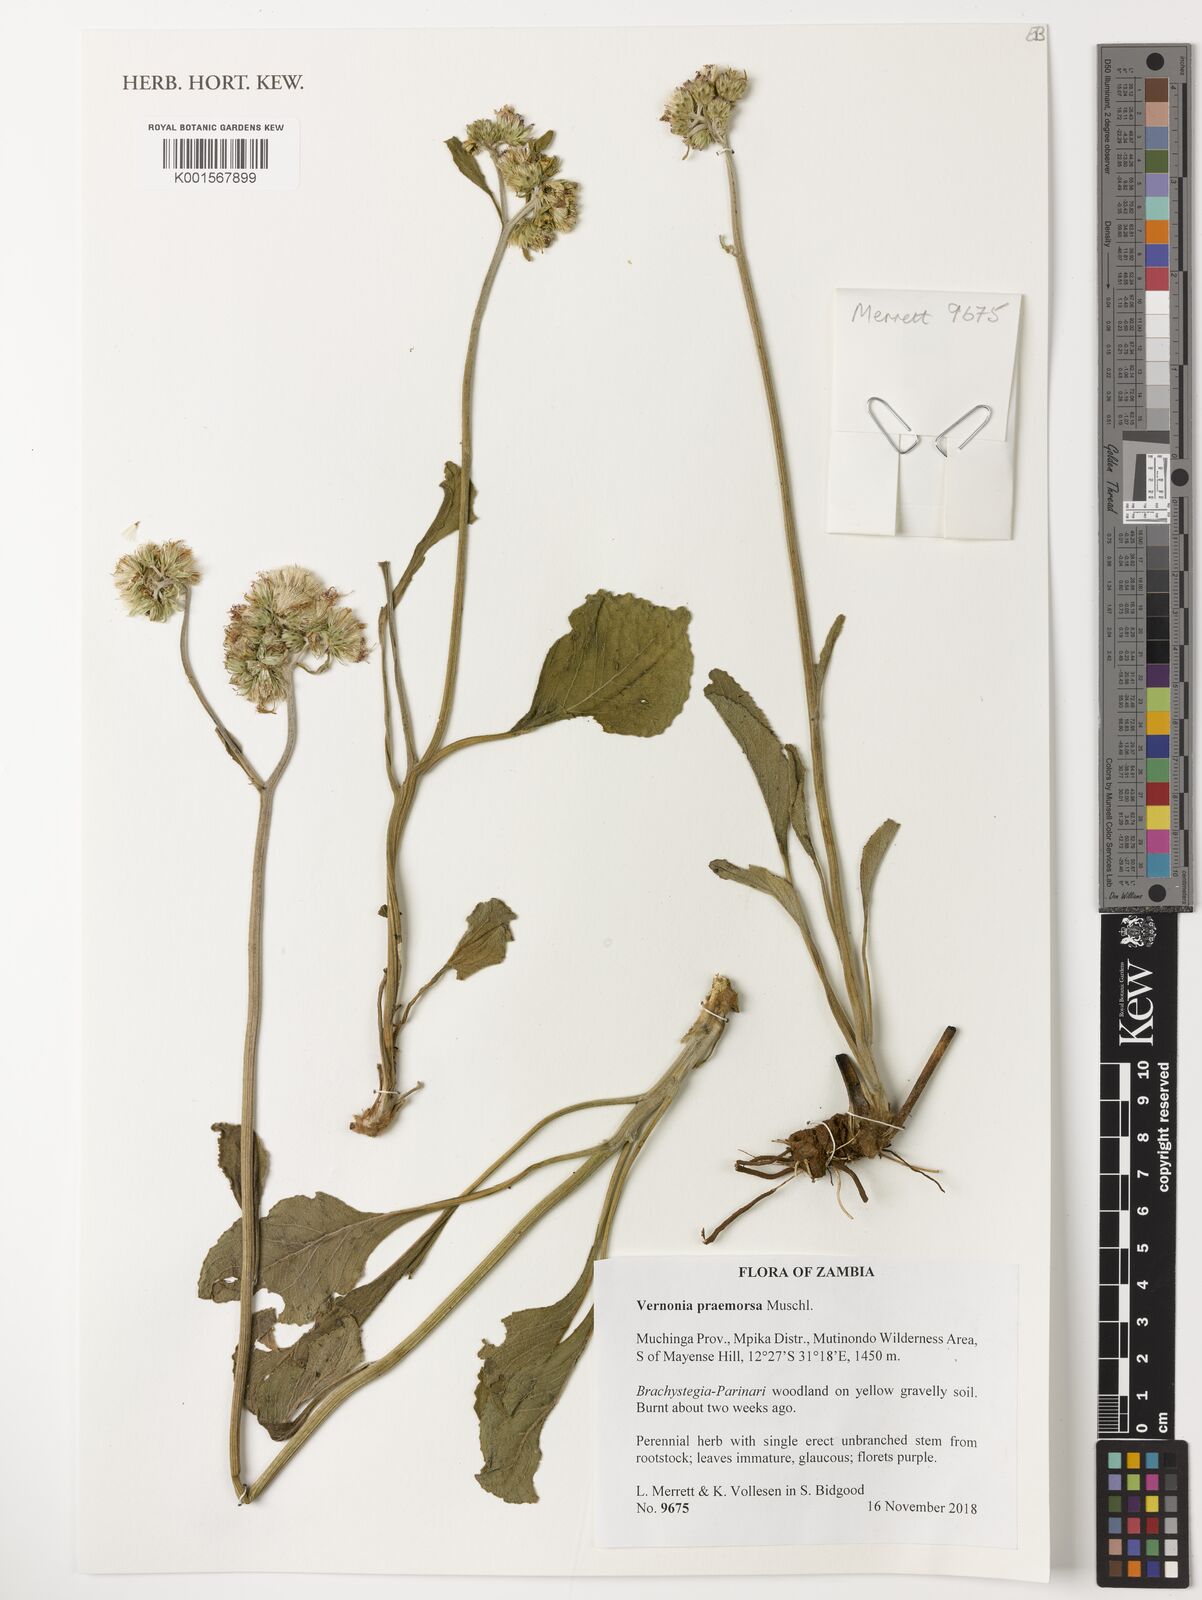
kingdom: Plantae
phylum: Tracheophyta
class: Magnoliopsida
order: Asterales
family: Asteraceae
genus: Vernonella
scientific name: Vernonella praemorsa
